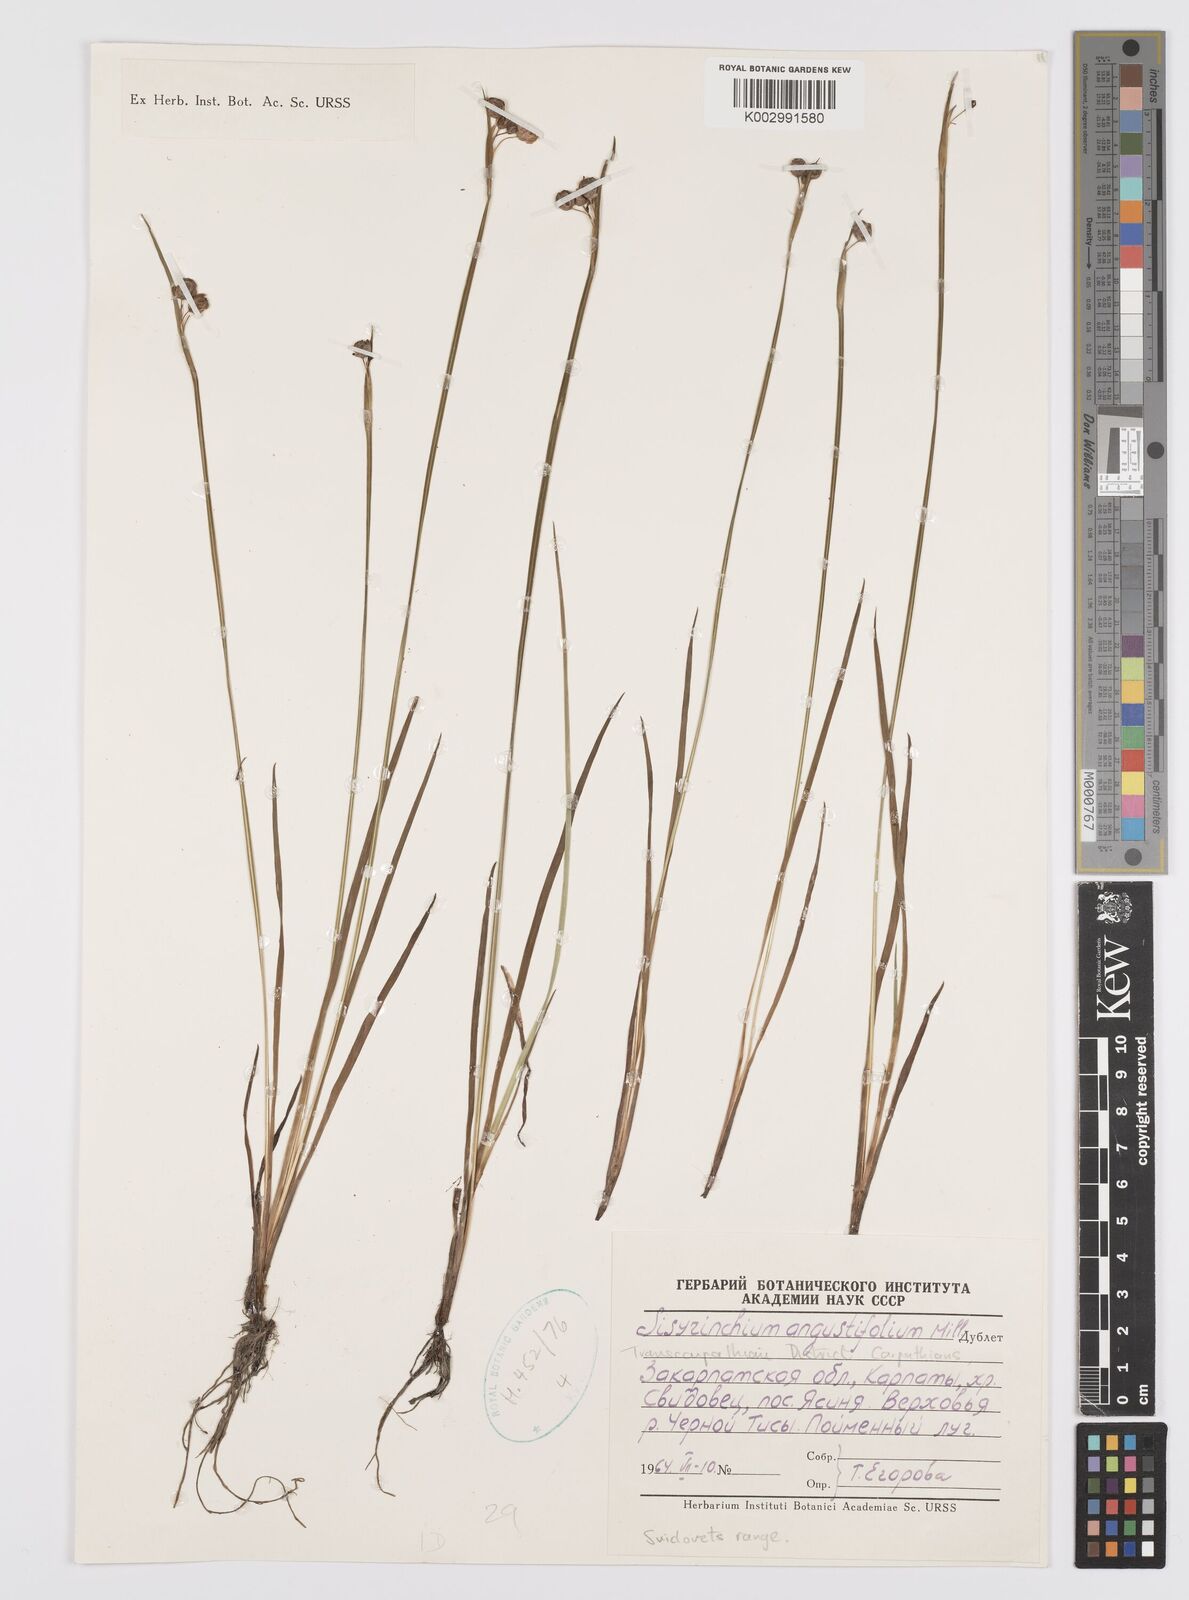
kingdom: Plantae
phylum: Tracheophyta
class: Liliopsida
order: Asparagales
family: Iridaceae
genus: Sisyrinchium
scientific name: Sisyrinchium angustifolium
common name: Narrow-leaf blue-eyed-grass
